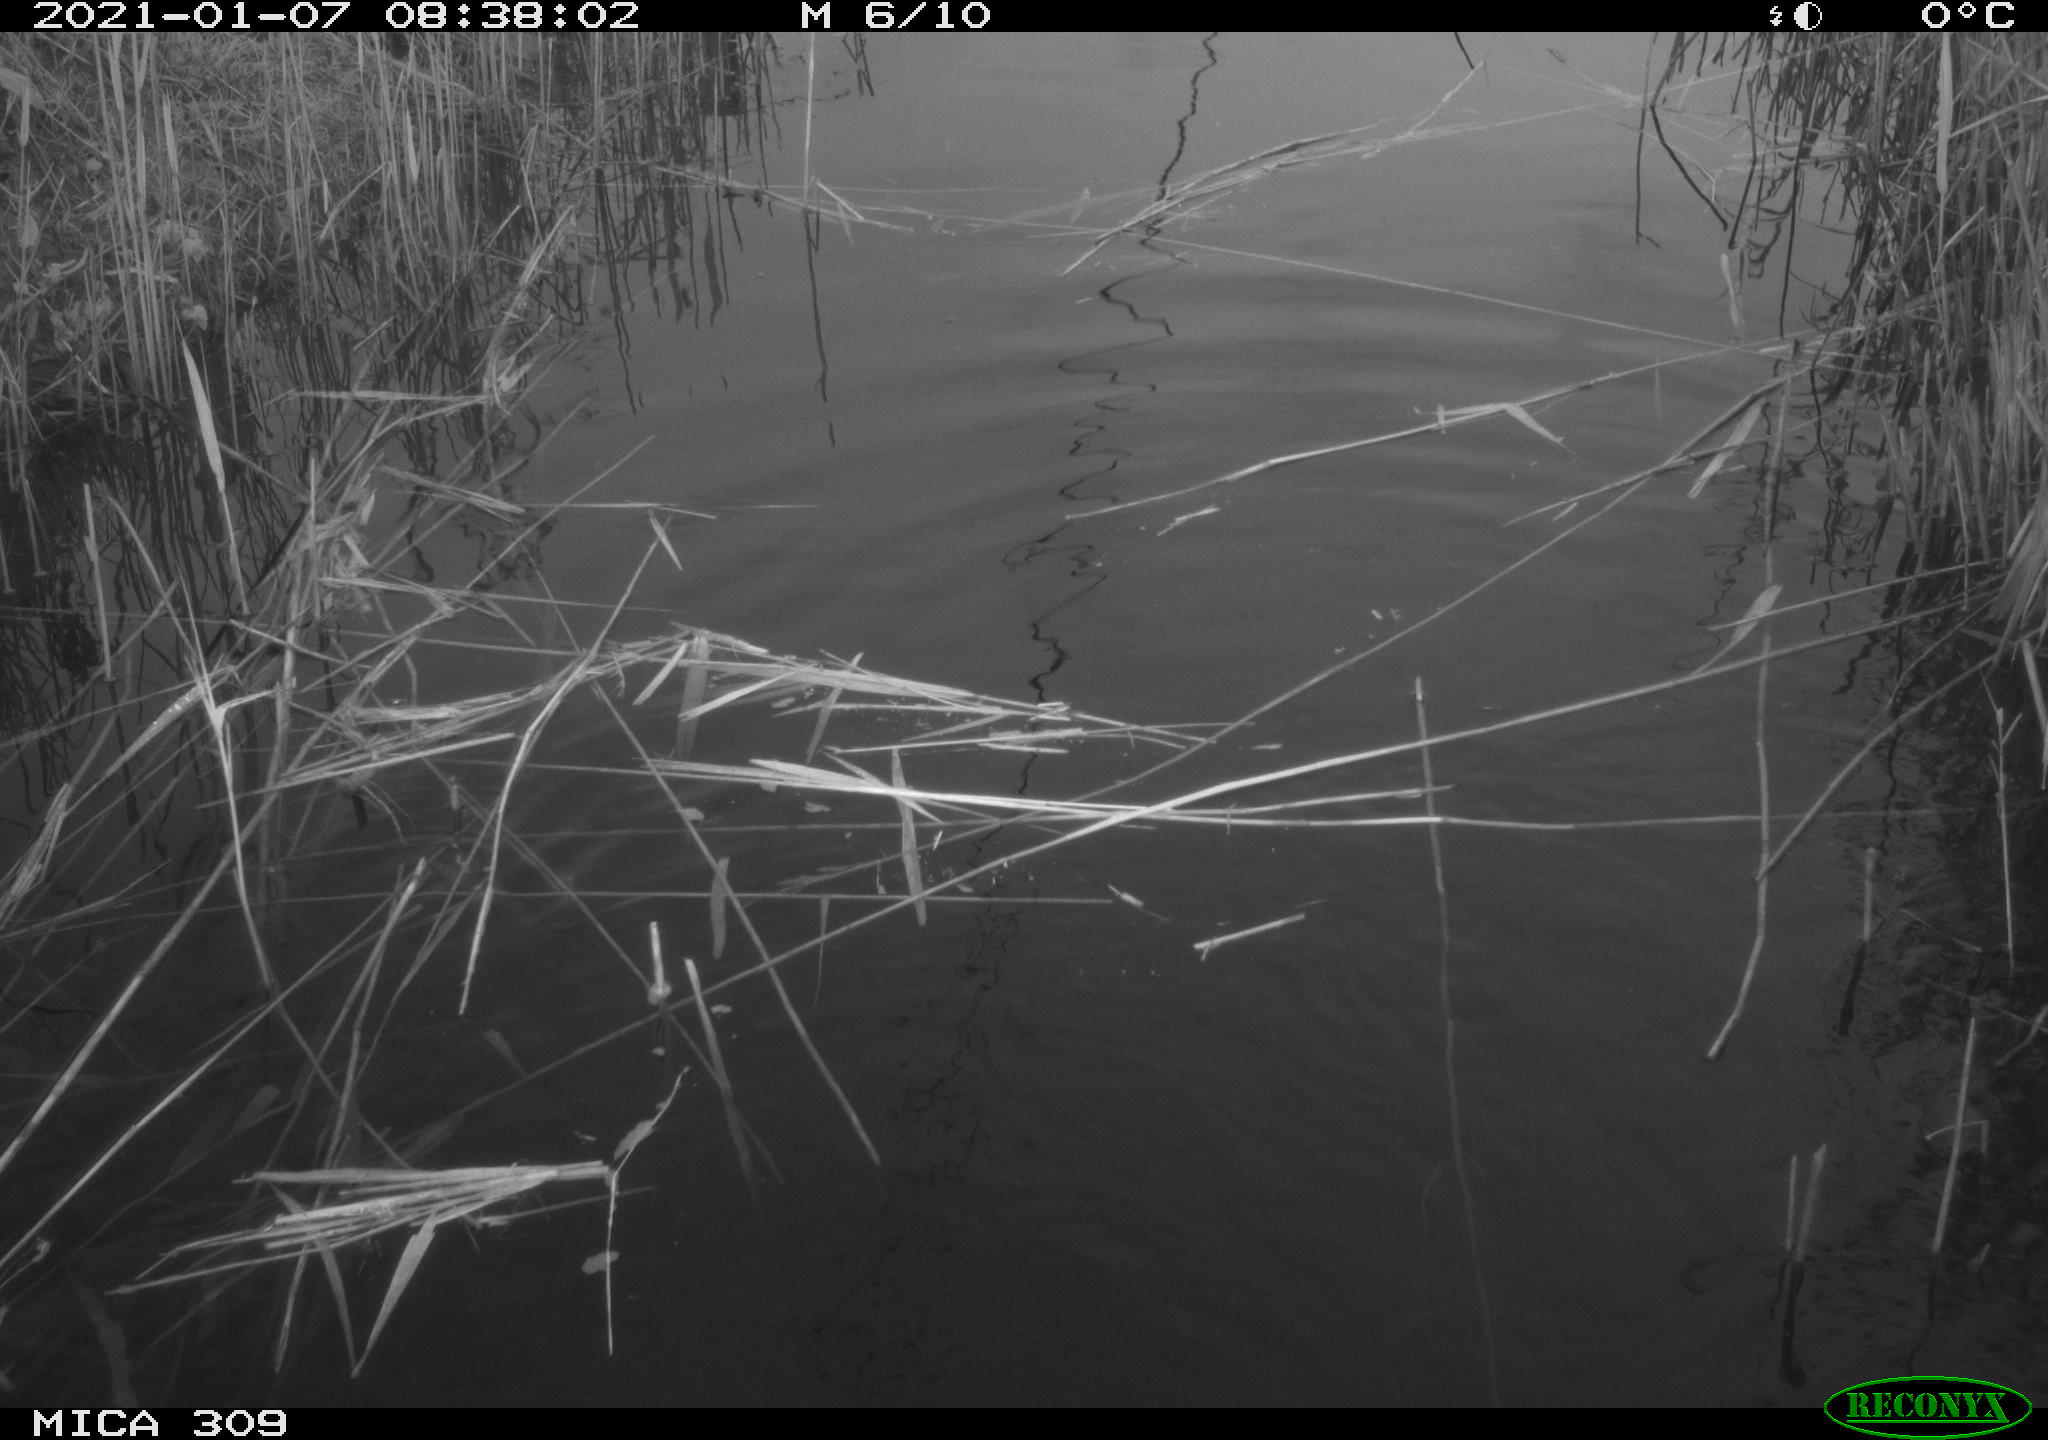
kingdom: Animalia
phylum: Chordata
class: Aves
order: Podicipediformes
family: Podicipedidae
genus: Tachybaptus
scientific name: Tachybaptus ruficollis
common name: Little grebe
